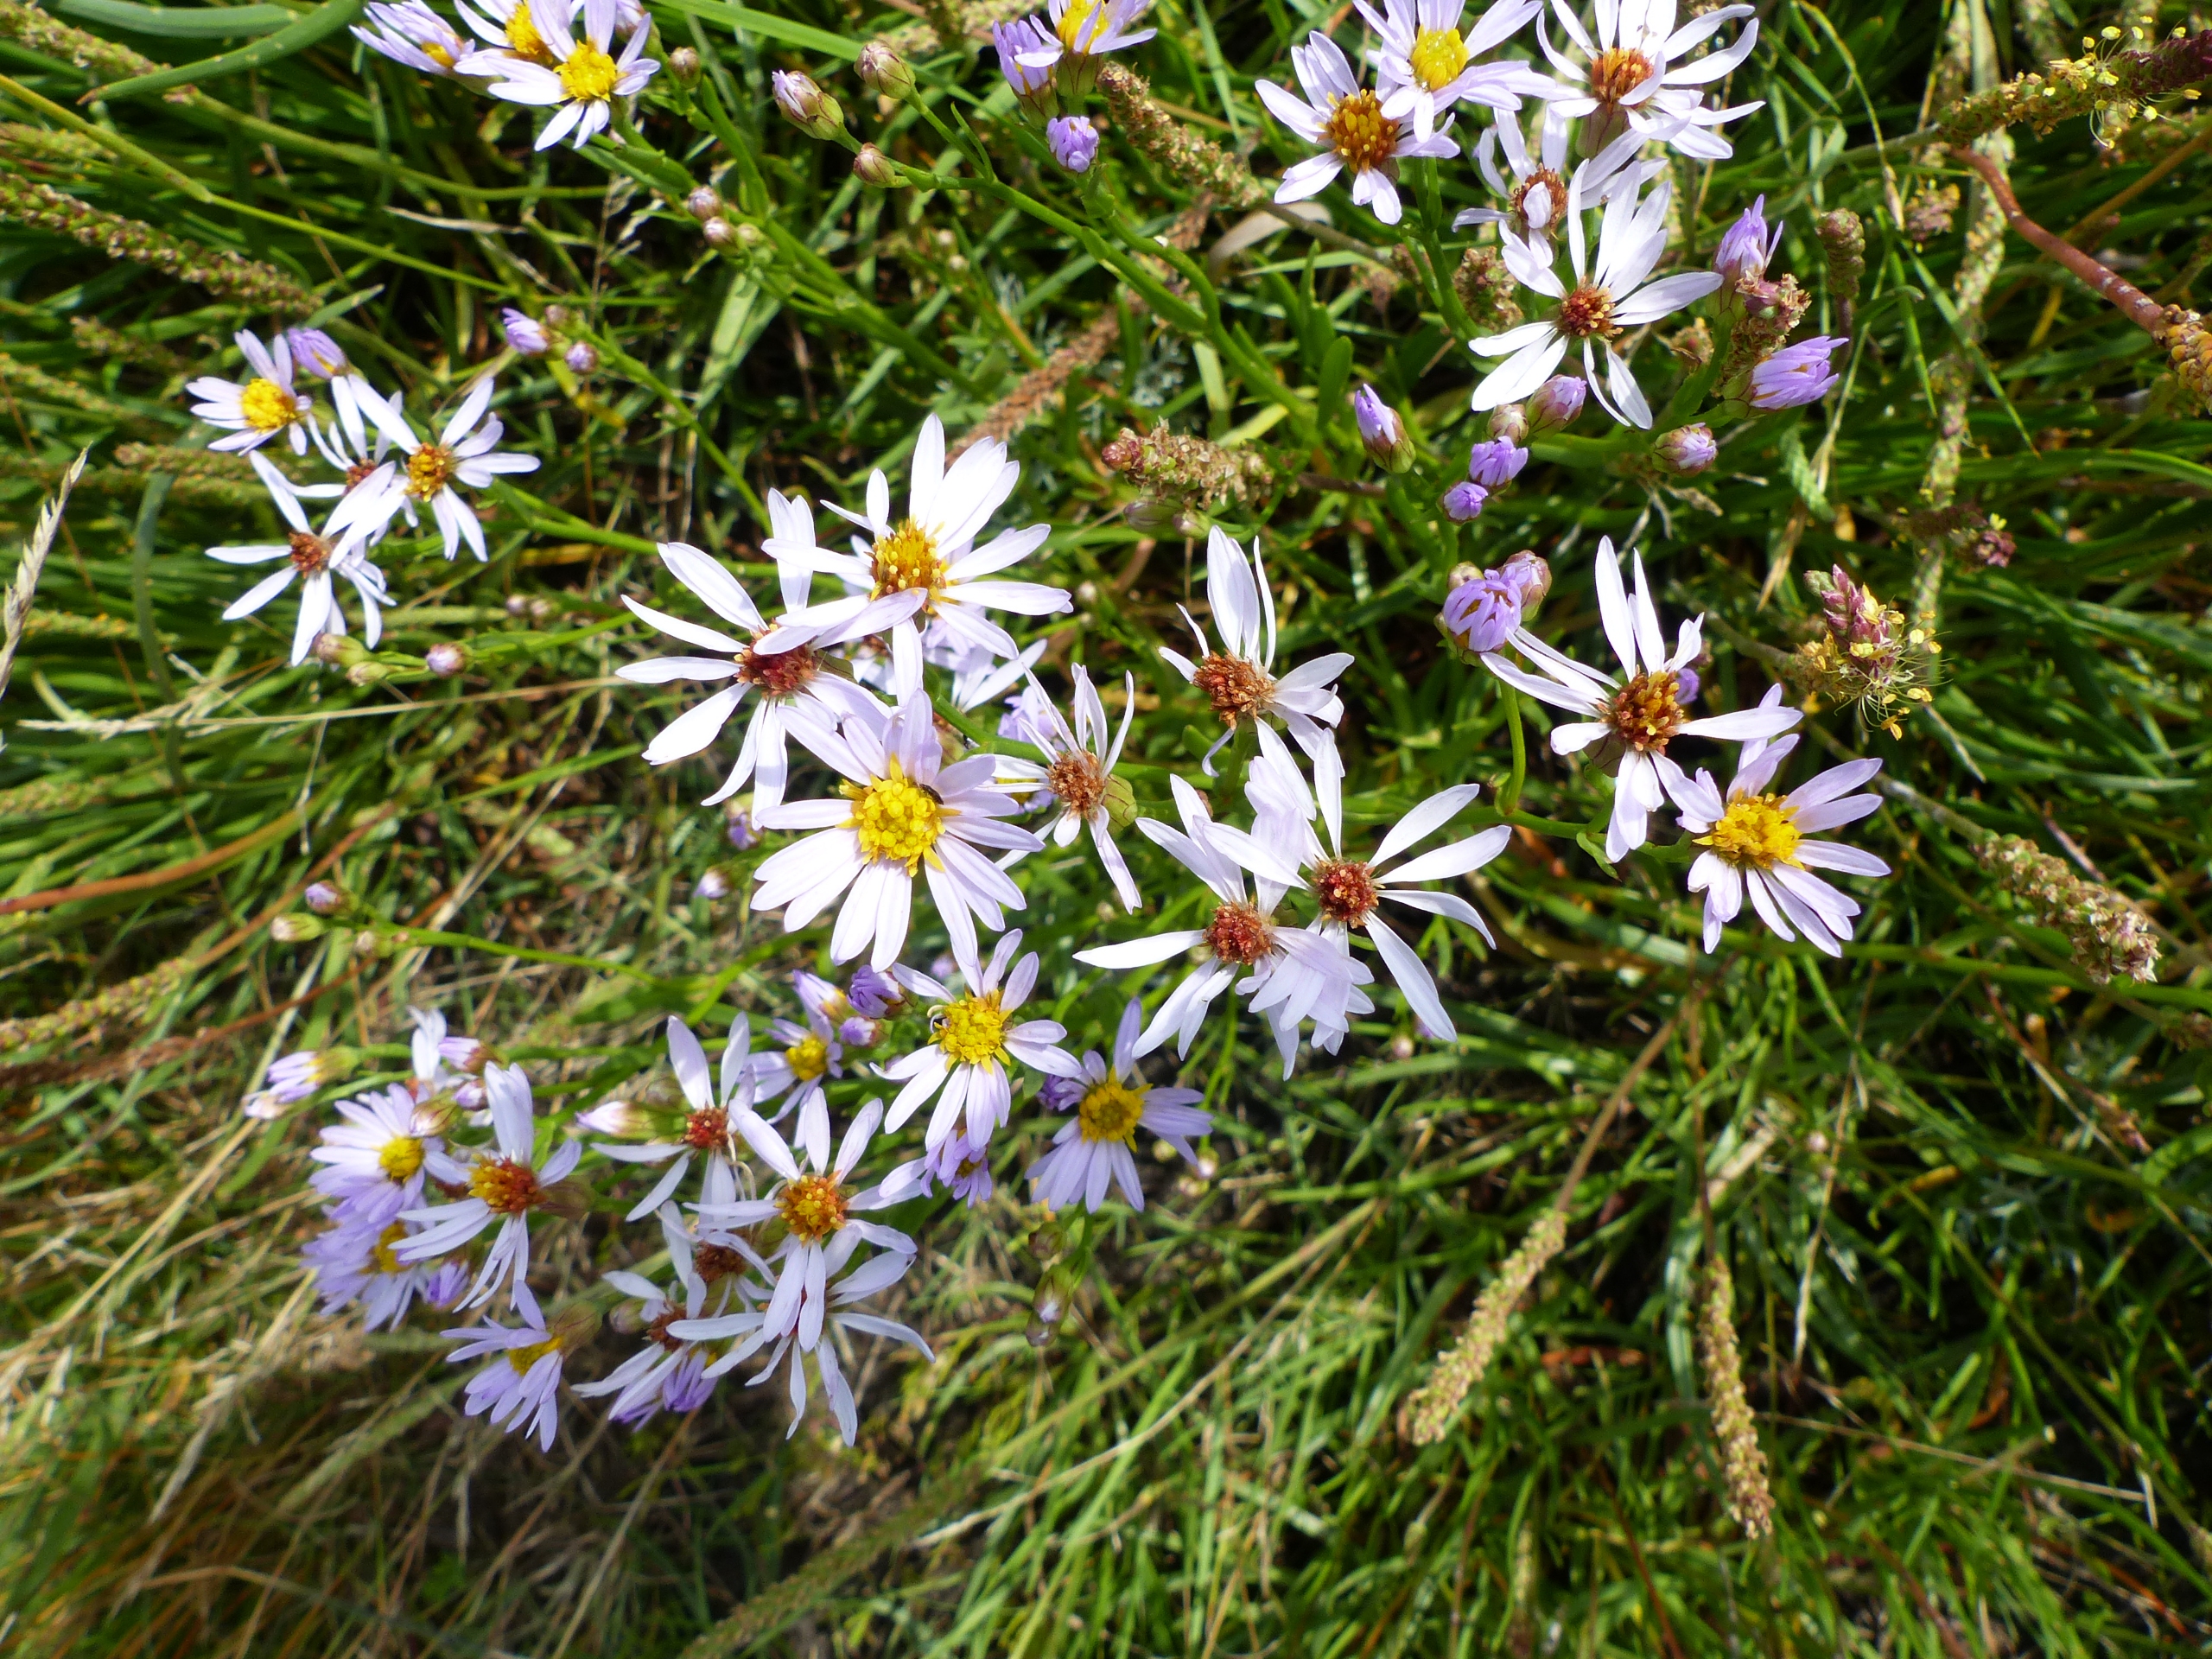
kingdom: Plantae
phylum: Tracheophyta
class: Magnoliopsida
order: Asterales
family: Asteraceae
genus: Tripolium
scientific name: Tripolium pannonicum
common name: Strandasters
